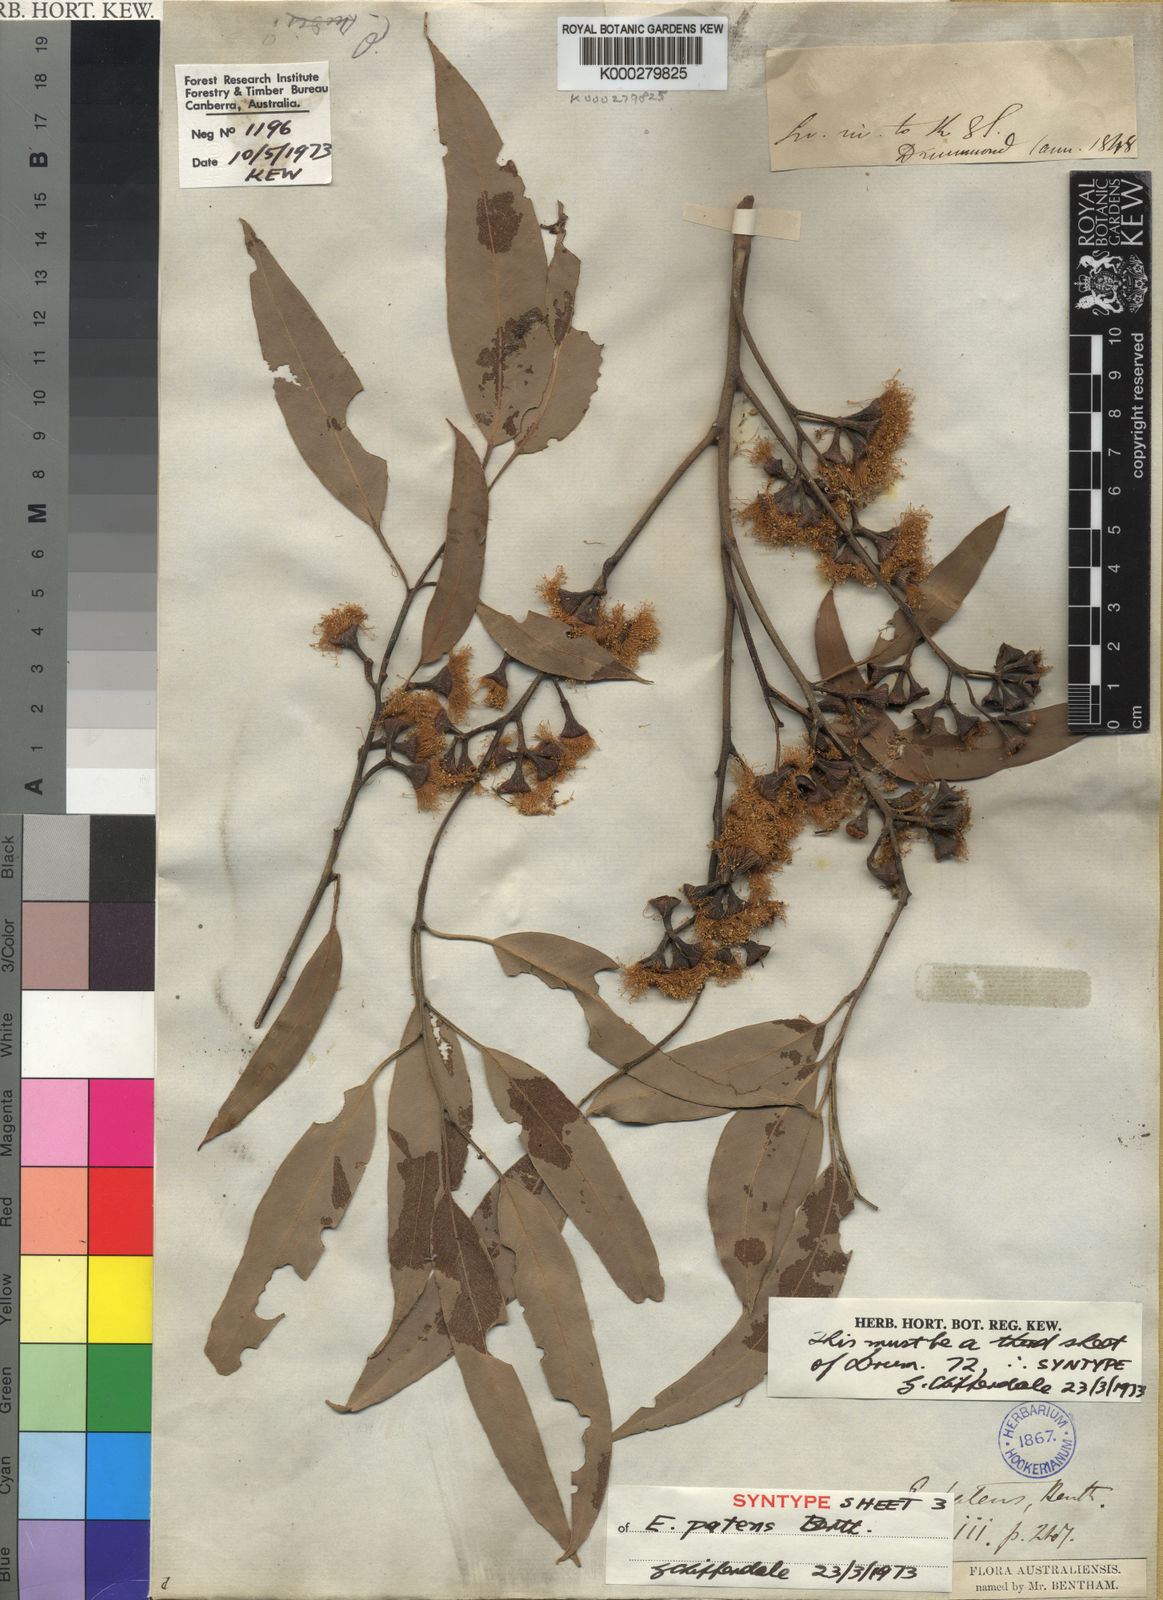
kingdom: Plantae
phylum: Tracheophyta
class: Magnoliopsida
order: Myrtales
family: Myrtaceae
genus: Eucalyptus
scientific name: Eucalyptus patens
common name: Swan river blackbutt
